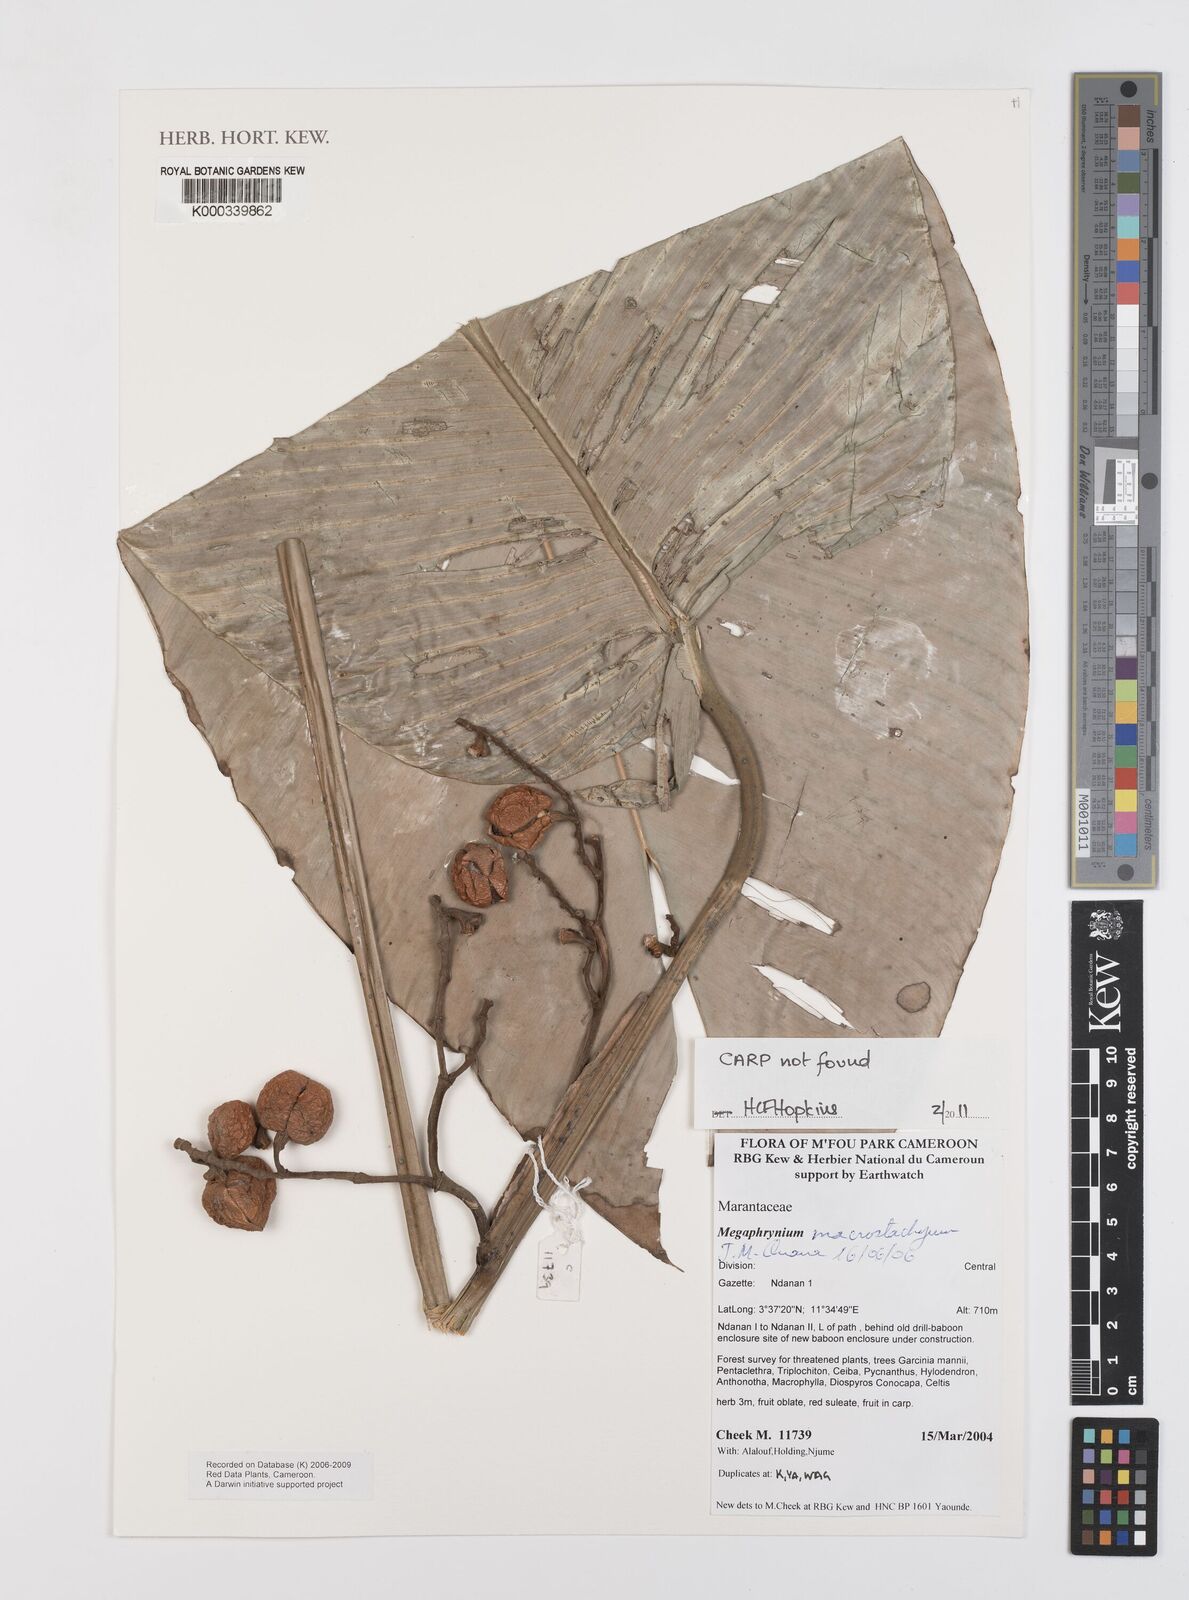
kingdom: Plantae
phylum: Tracheophyta
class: Liliopsida
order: Zingiberales
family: Marantaceae
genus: Megaphrynium
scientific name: Megaphrynium macrostachyum
